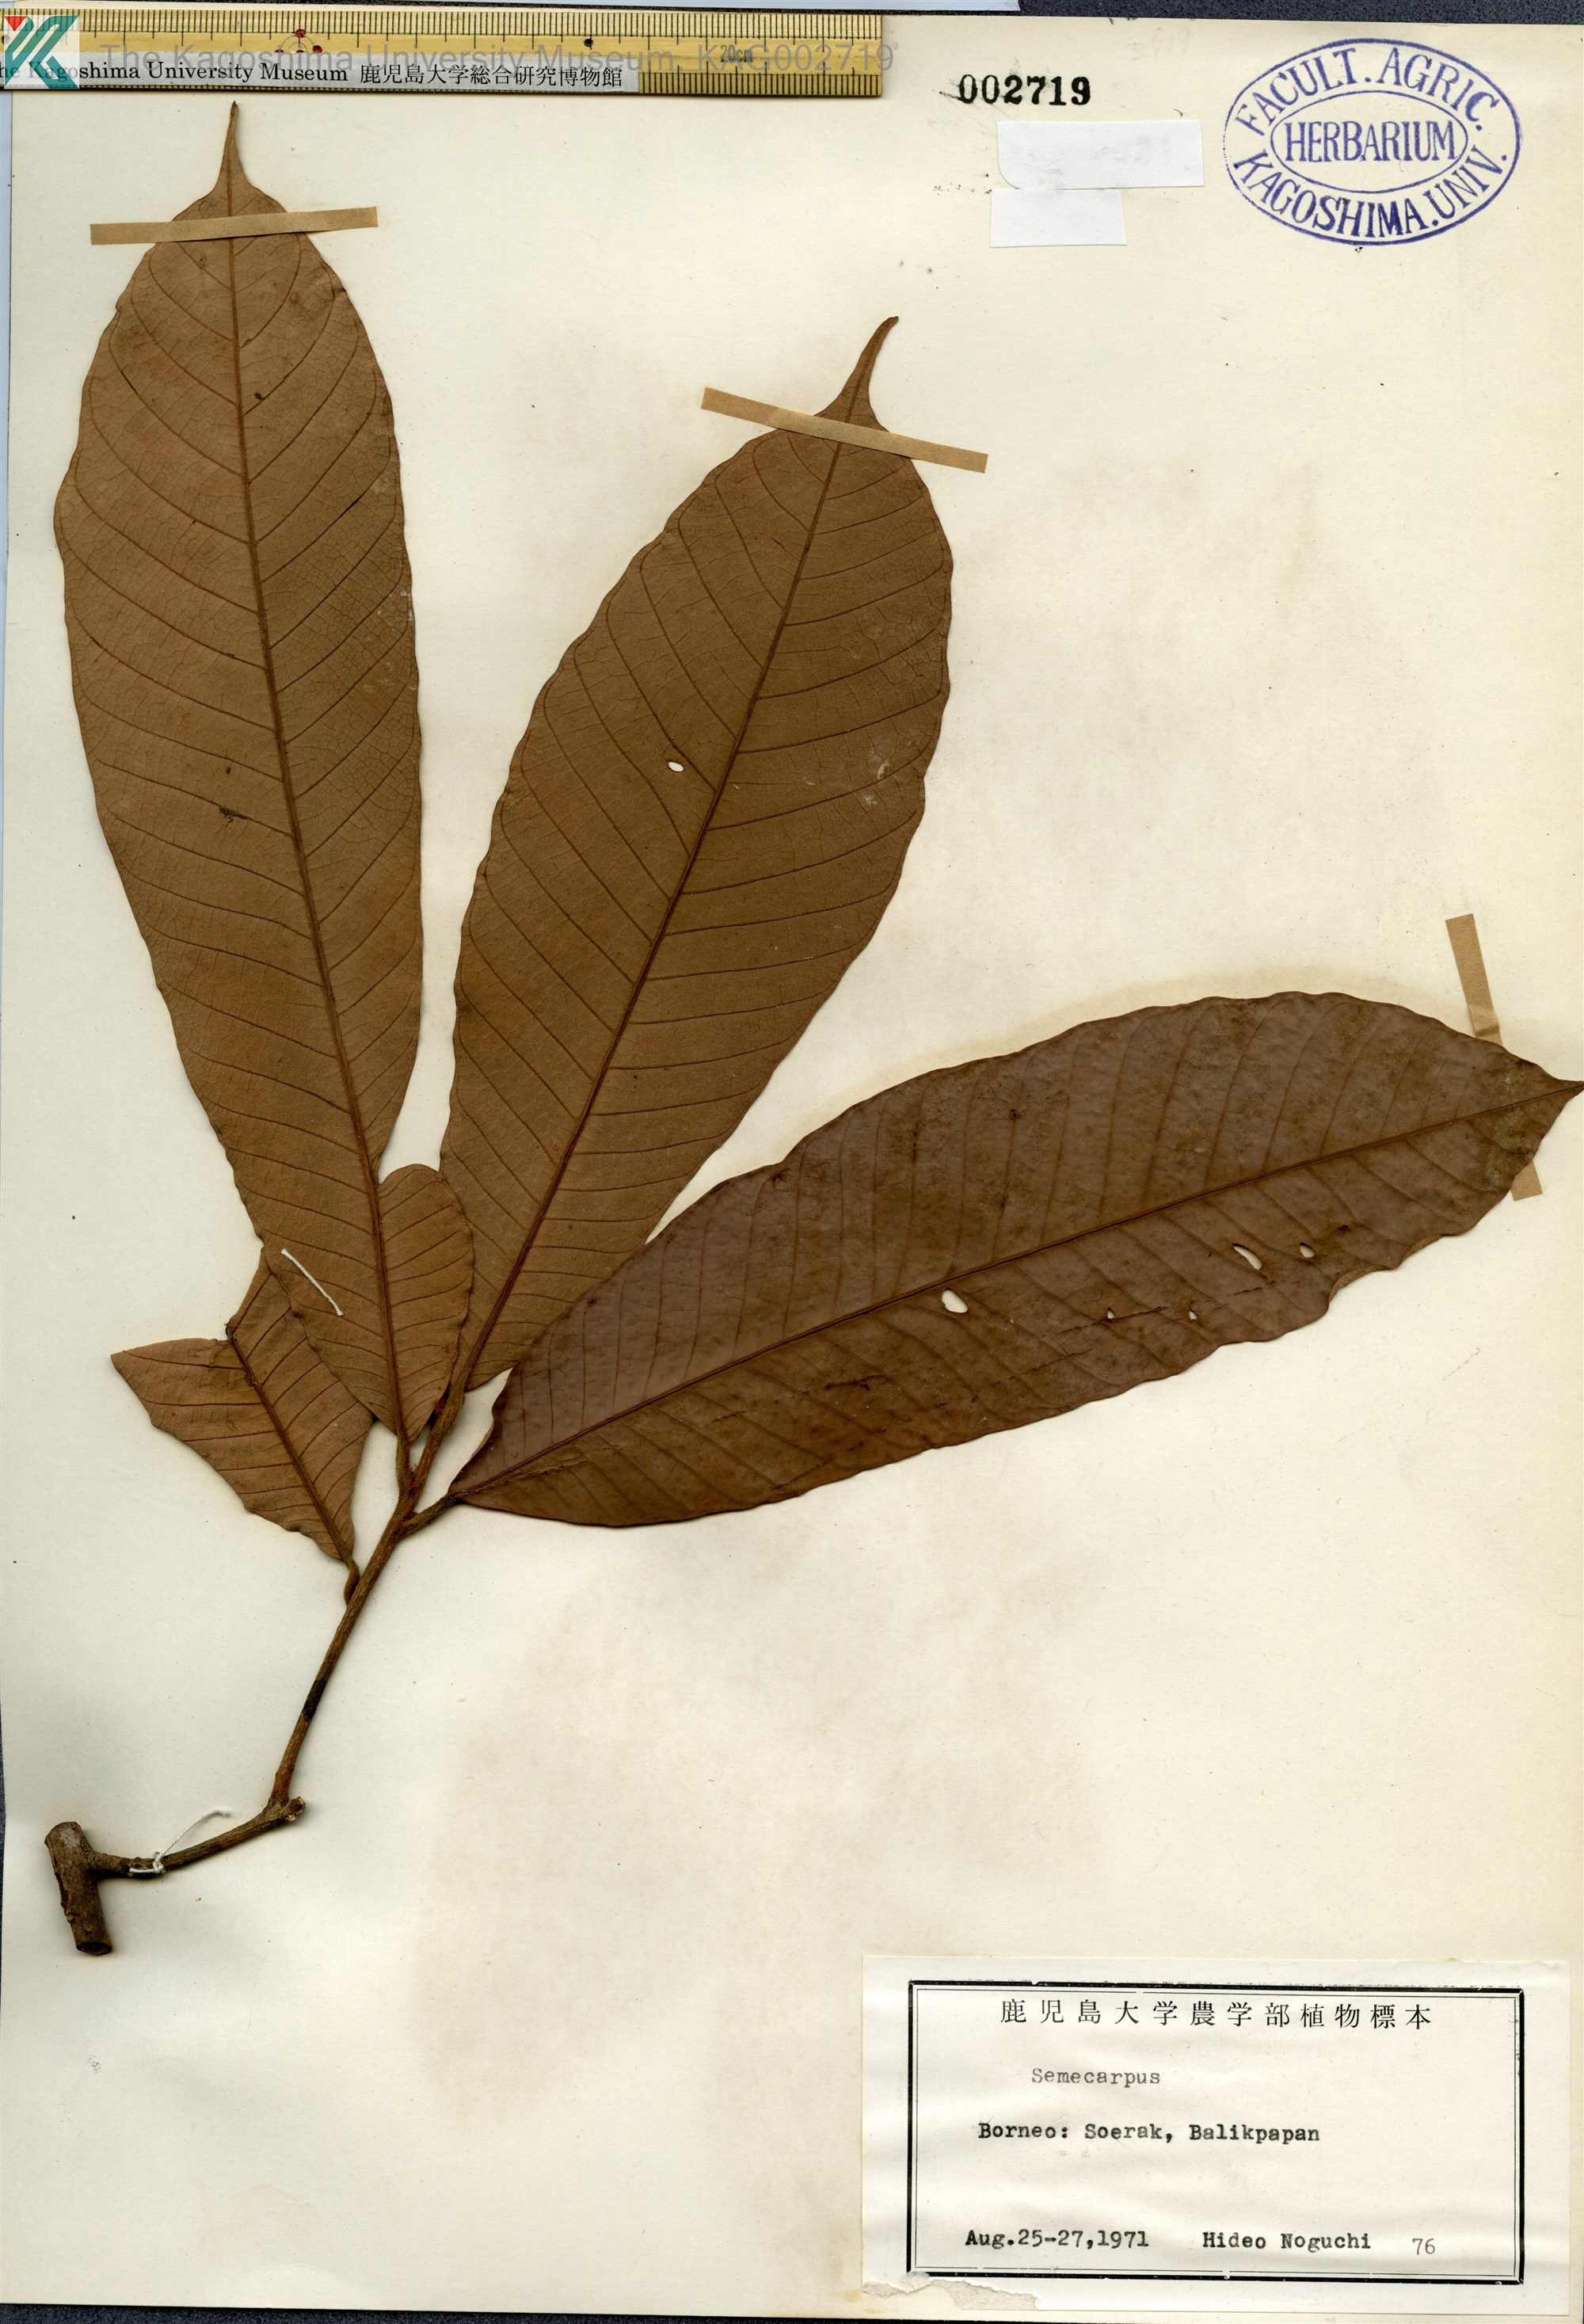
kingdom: Plantae
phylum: Tracheophyta
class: Magnoliopsida
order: Sapindales
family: Anacardiaceae
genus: Semecarpus
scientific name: Semecarpus
